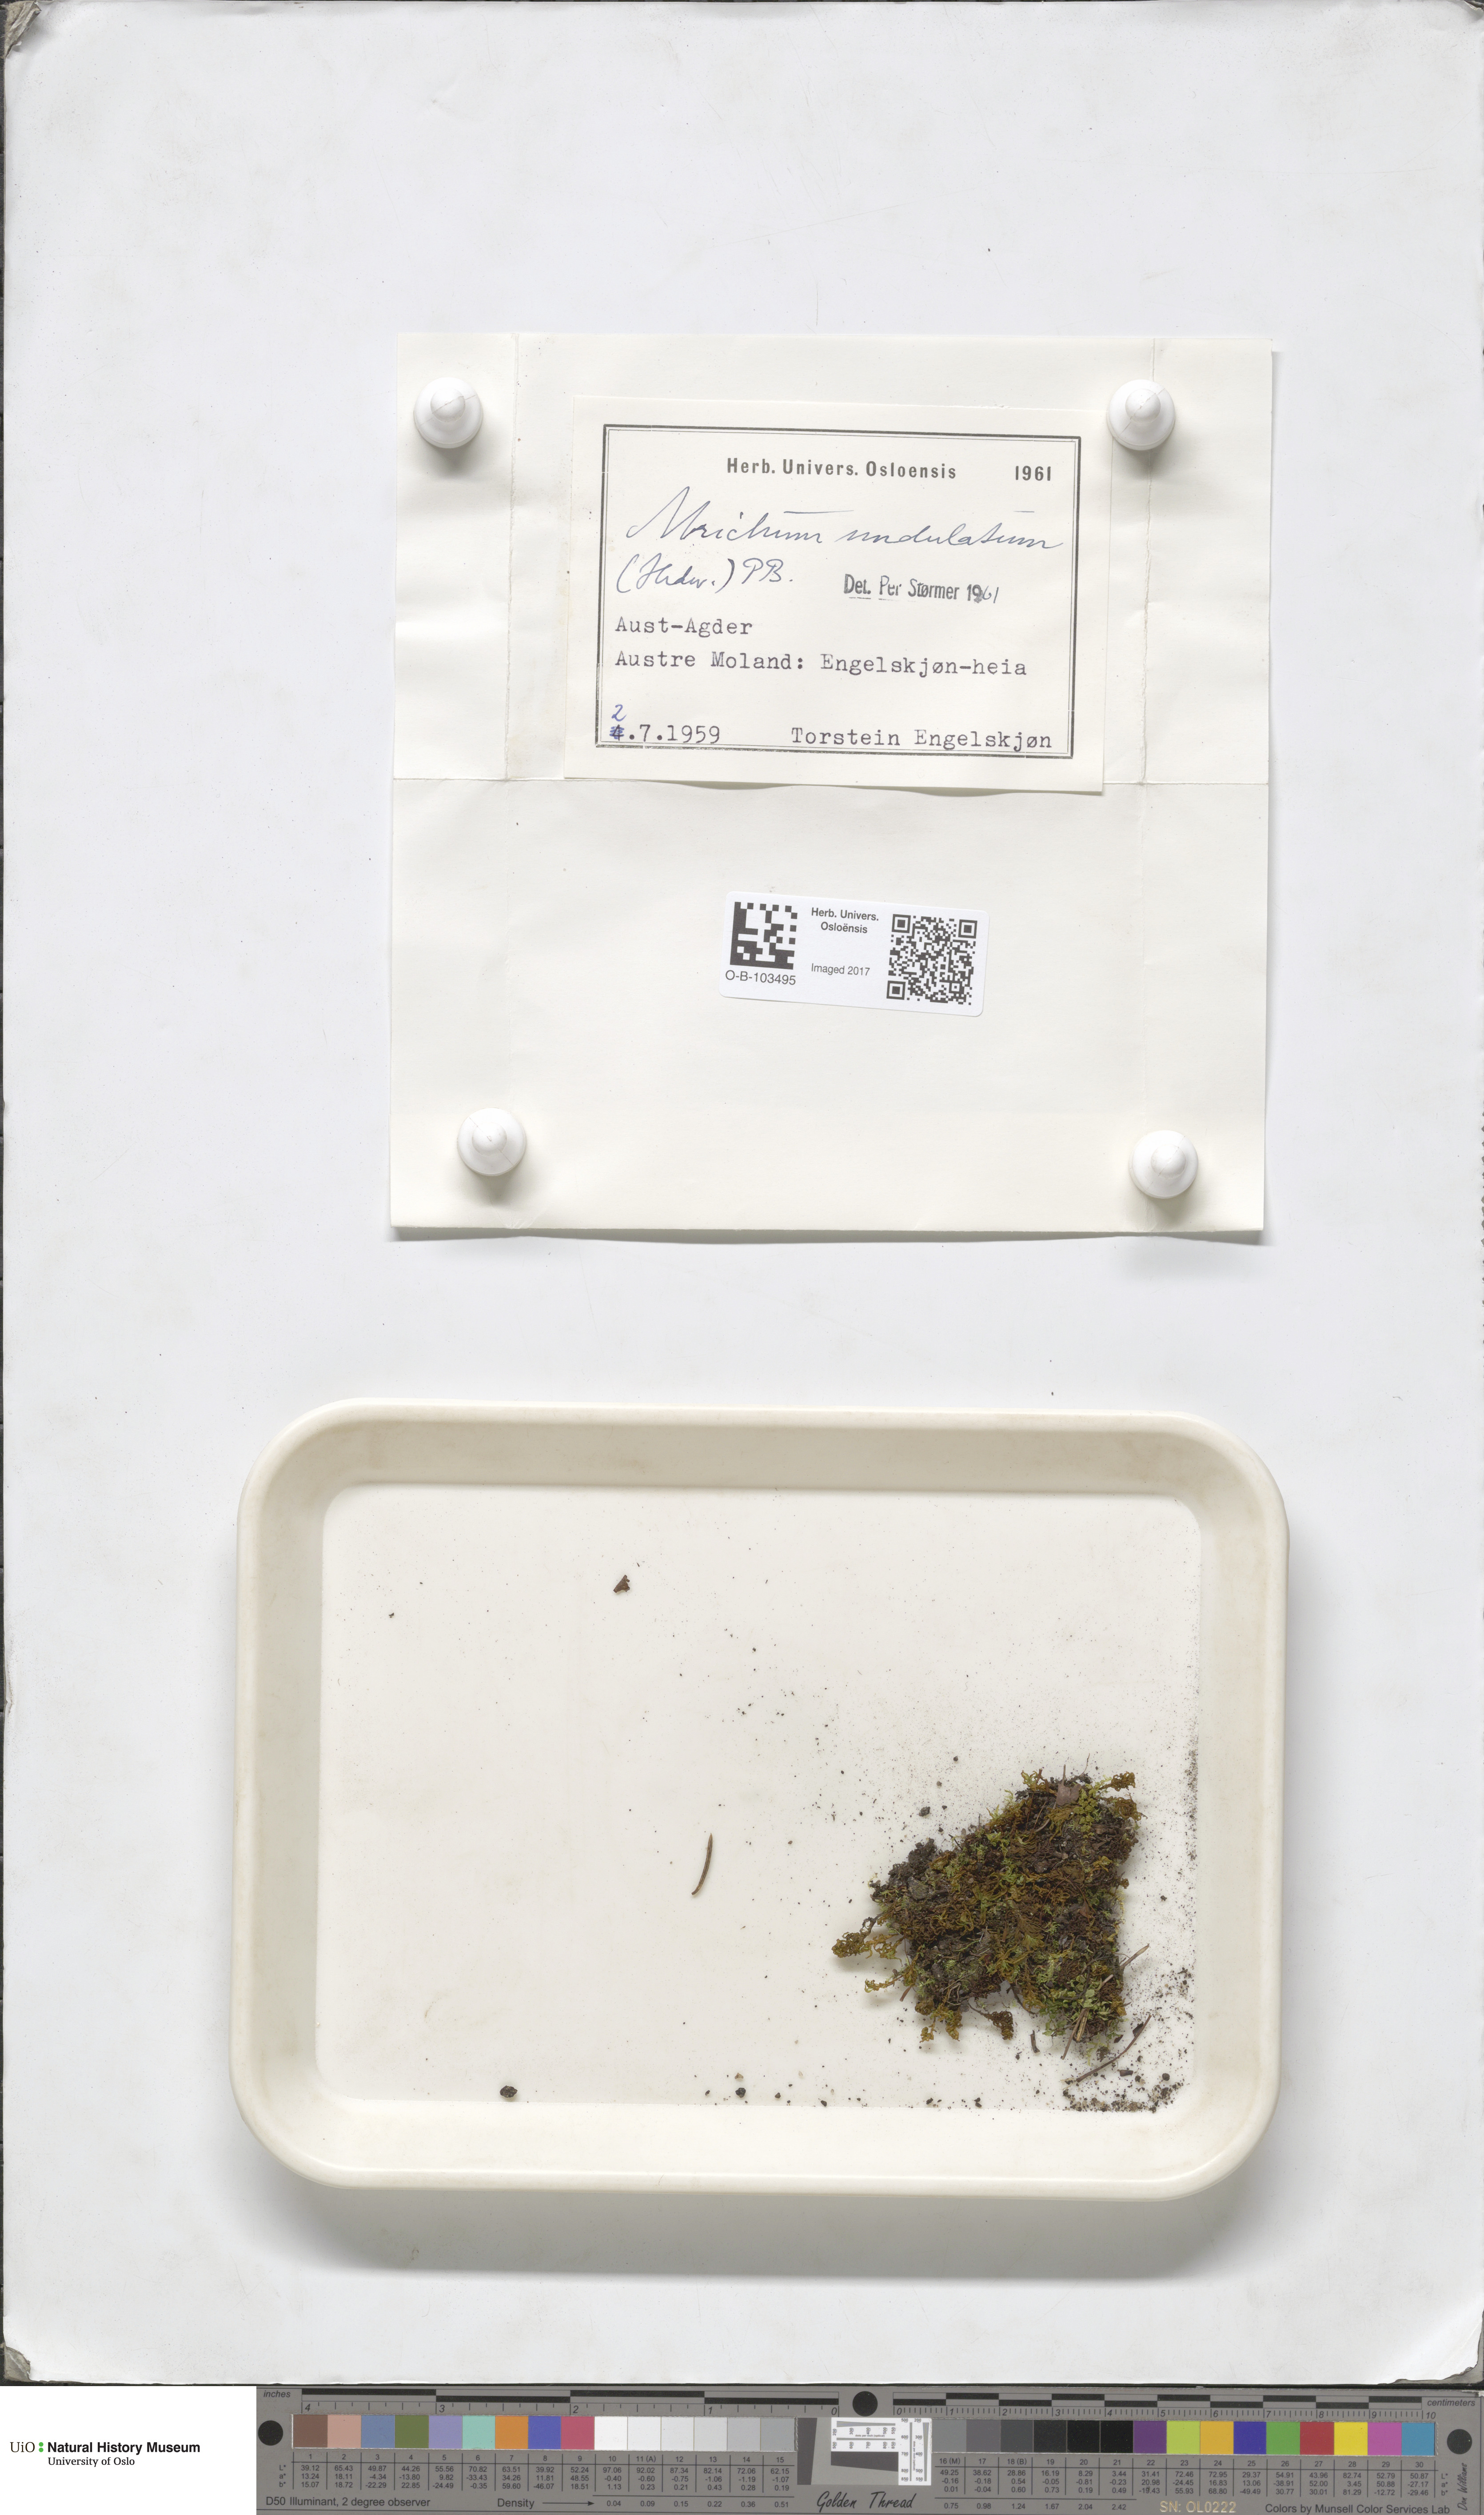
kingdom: Plantae
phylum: Bryophyta
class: Polytrichopsida
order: Polytrichales
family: Polytrichaceae
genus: Atrichum
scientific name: Atrichum undulatum
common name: Common smoothcap
